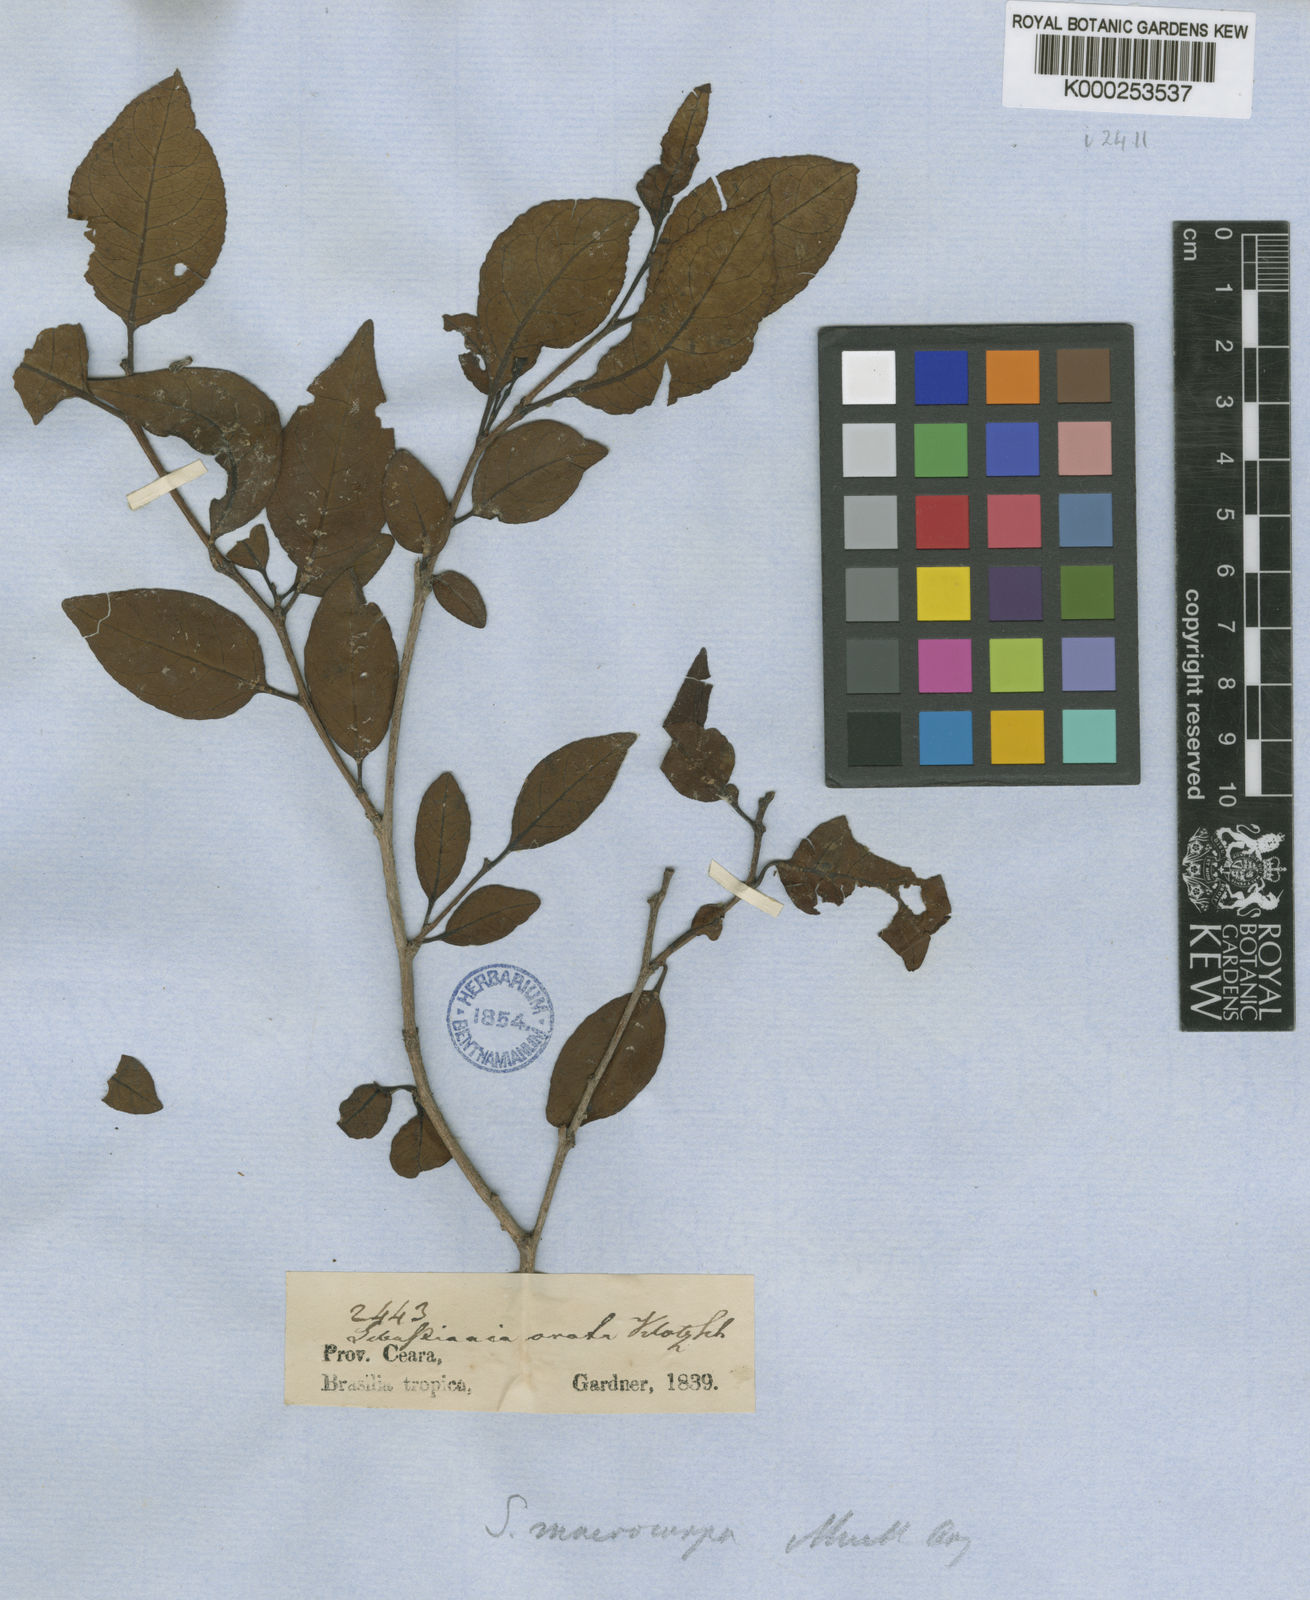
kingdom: Plantae
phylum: Tracheophyta
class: Magnoliopsida
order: Malpighiales
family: Euphorbiaceae
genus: Sebastiania
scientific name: Sebastiania
